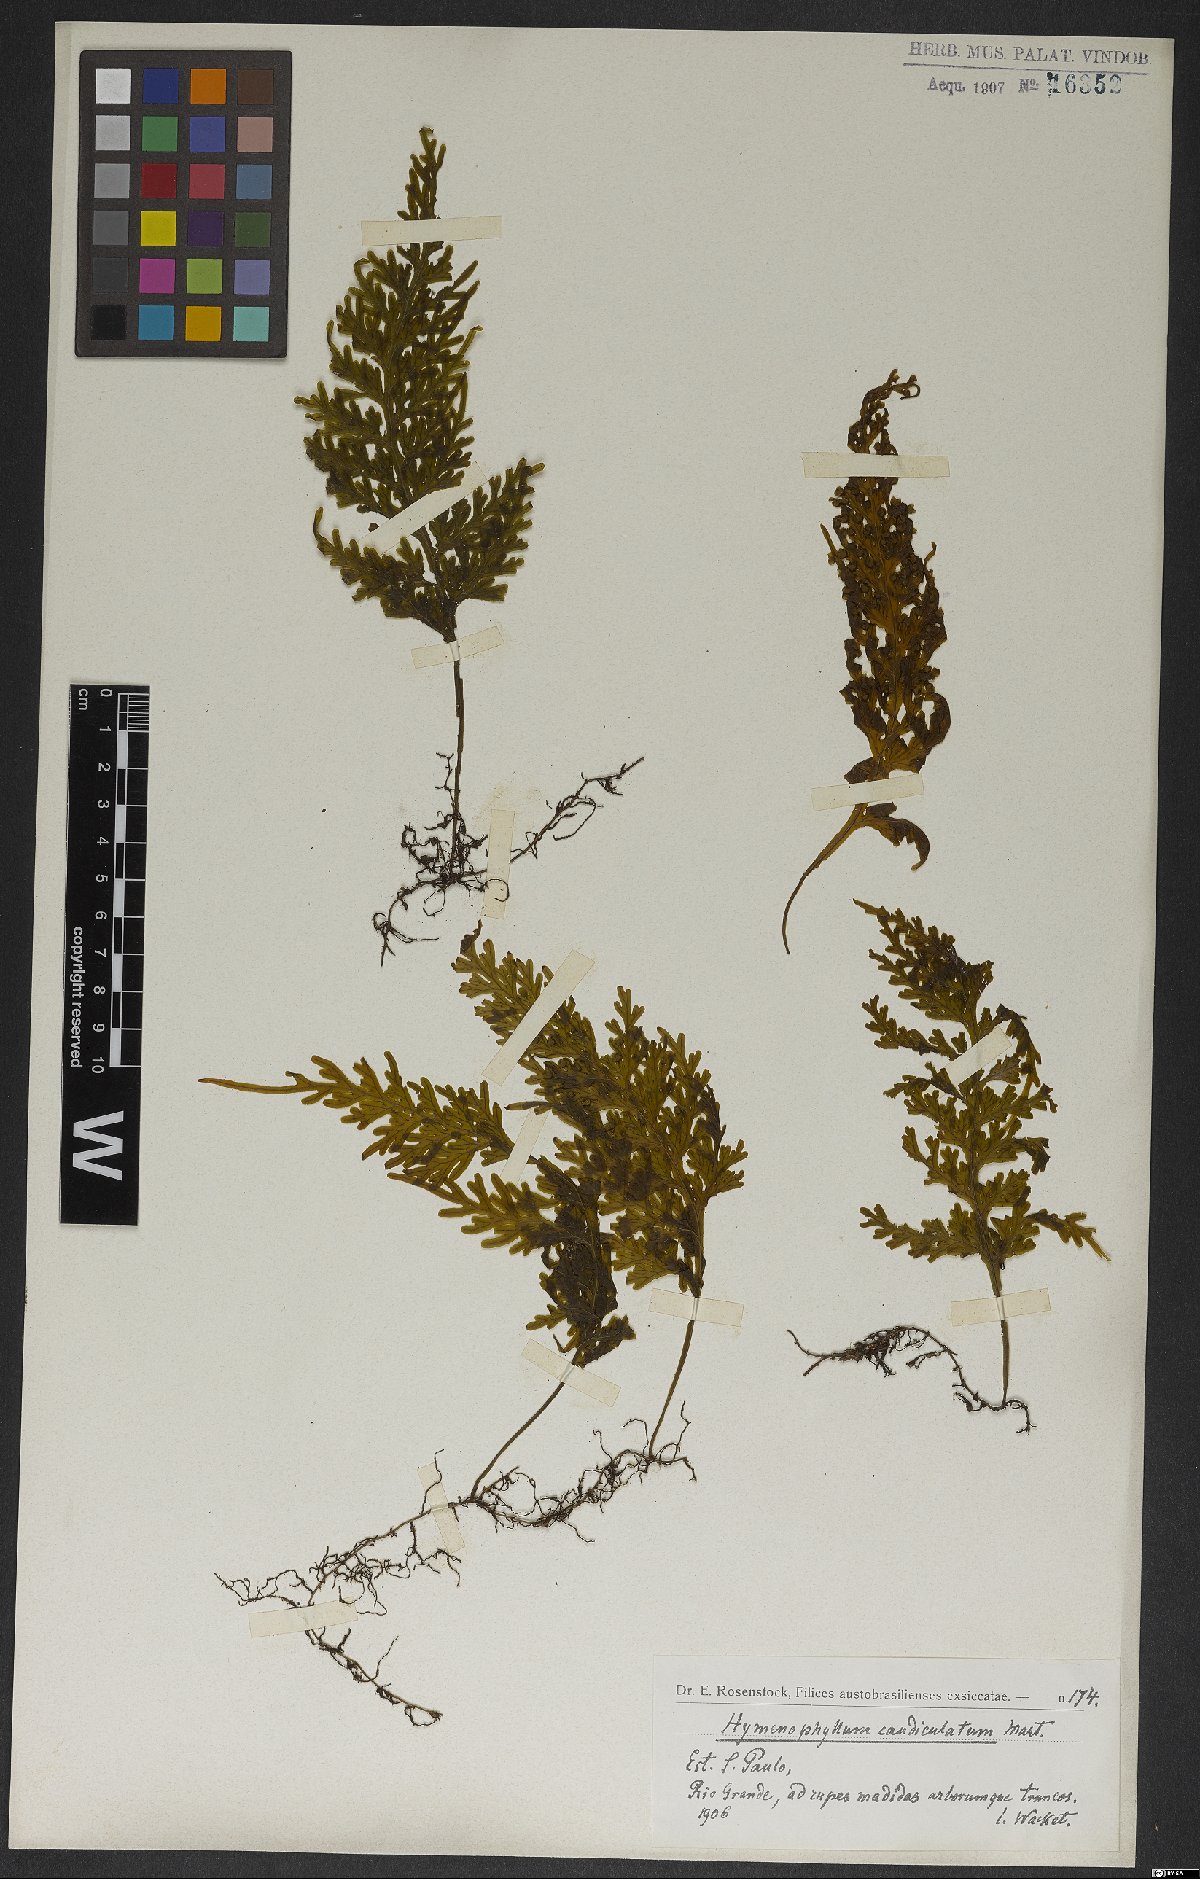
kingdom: Plantae
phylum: Tracheophyta
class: Polypodiopsida
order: Hymenophyllales
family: Hymenophyllaceae
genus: Hymenophyllum
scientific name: Hymenophyllum caudiculatum
